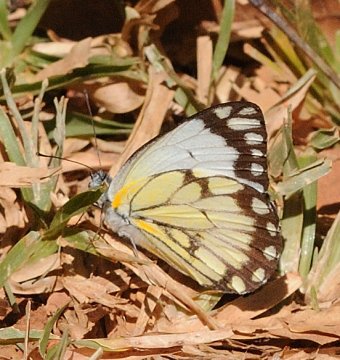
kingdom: Animalia
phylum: Arthropoda
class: Insecta
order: Lepidoptera
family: Pieridae
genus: Belenois
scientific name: Belenois creona
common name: African Caper
